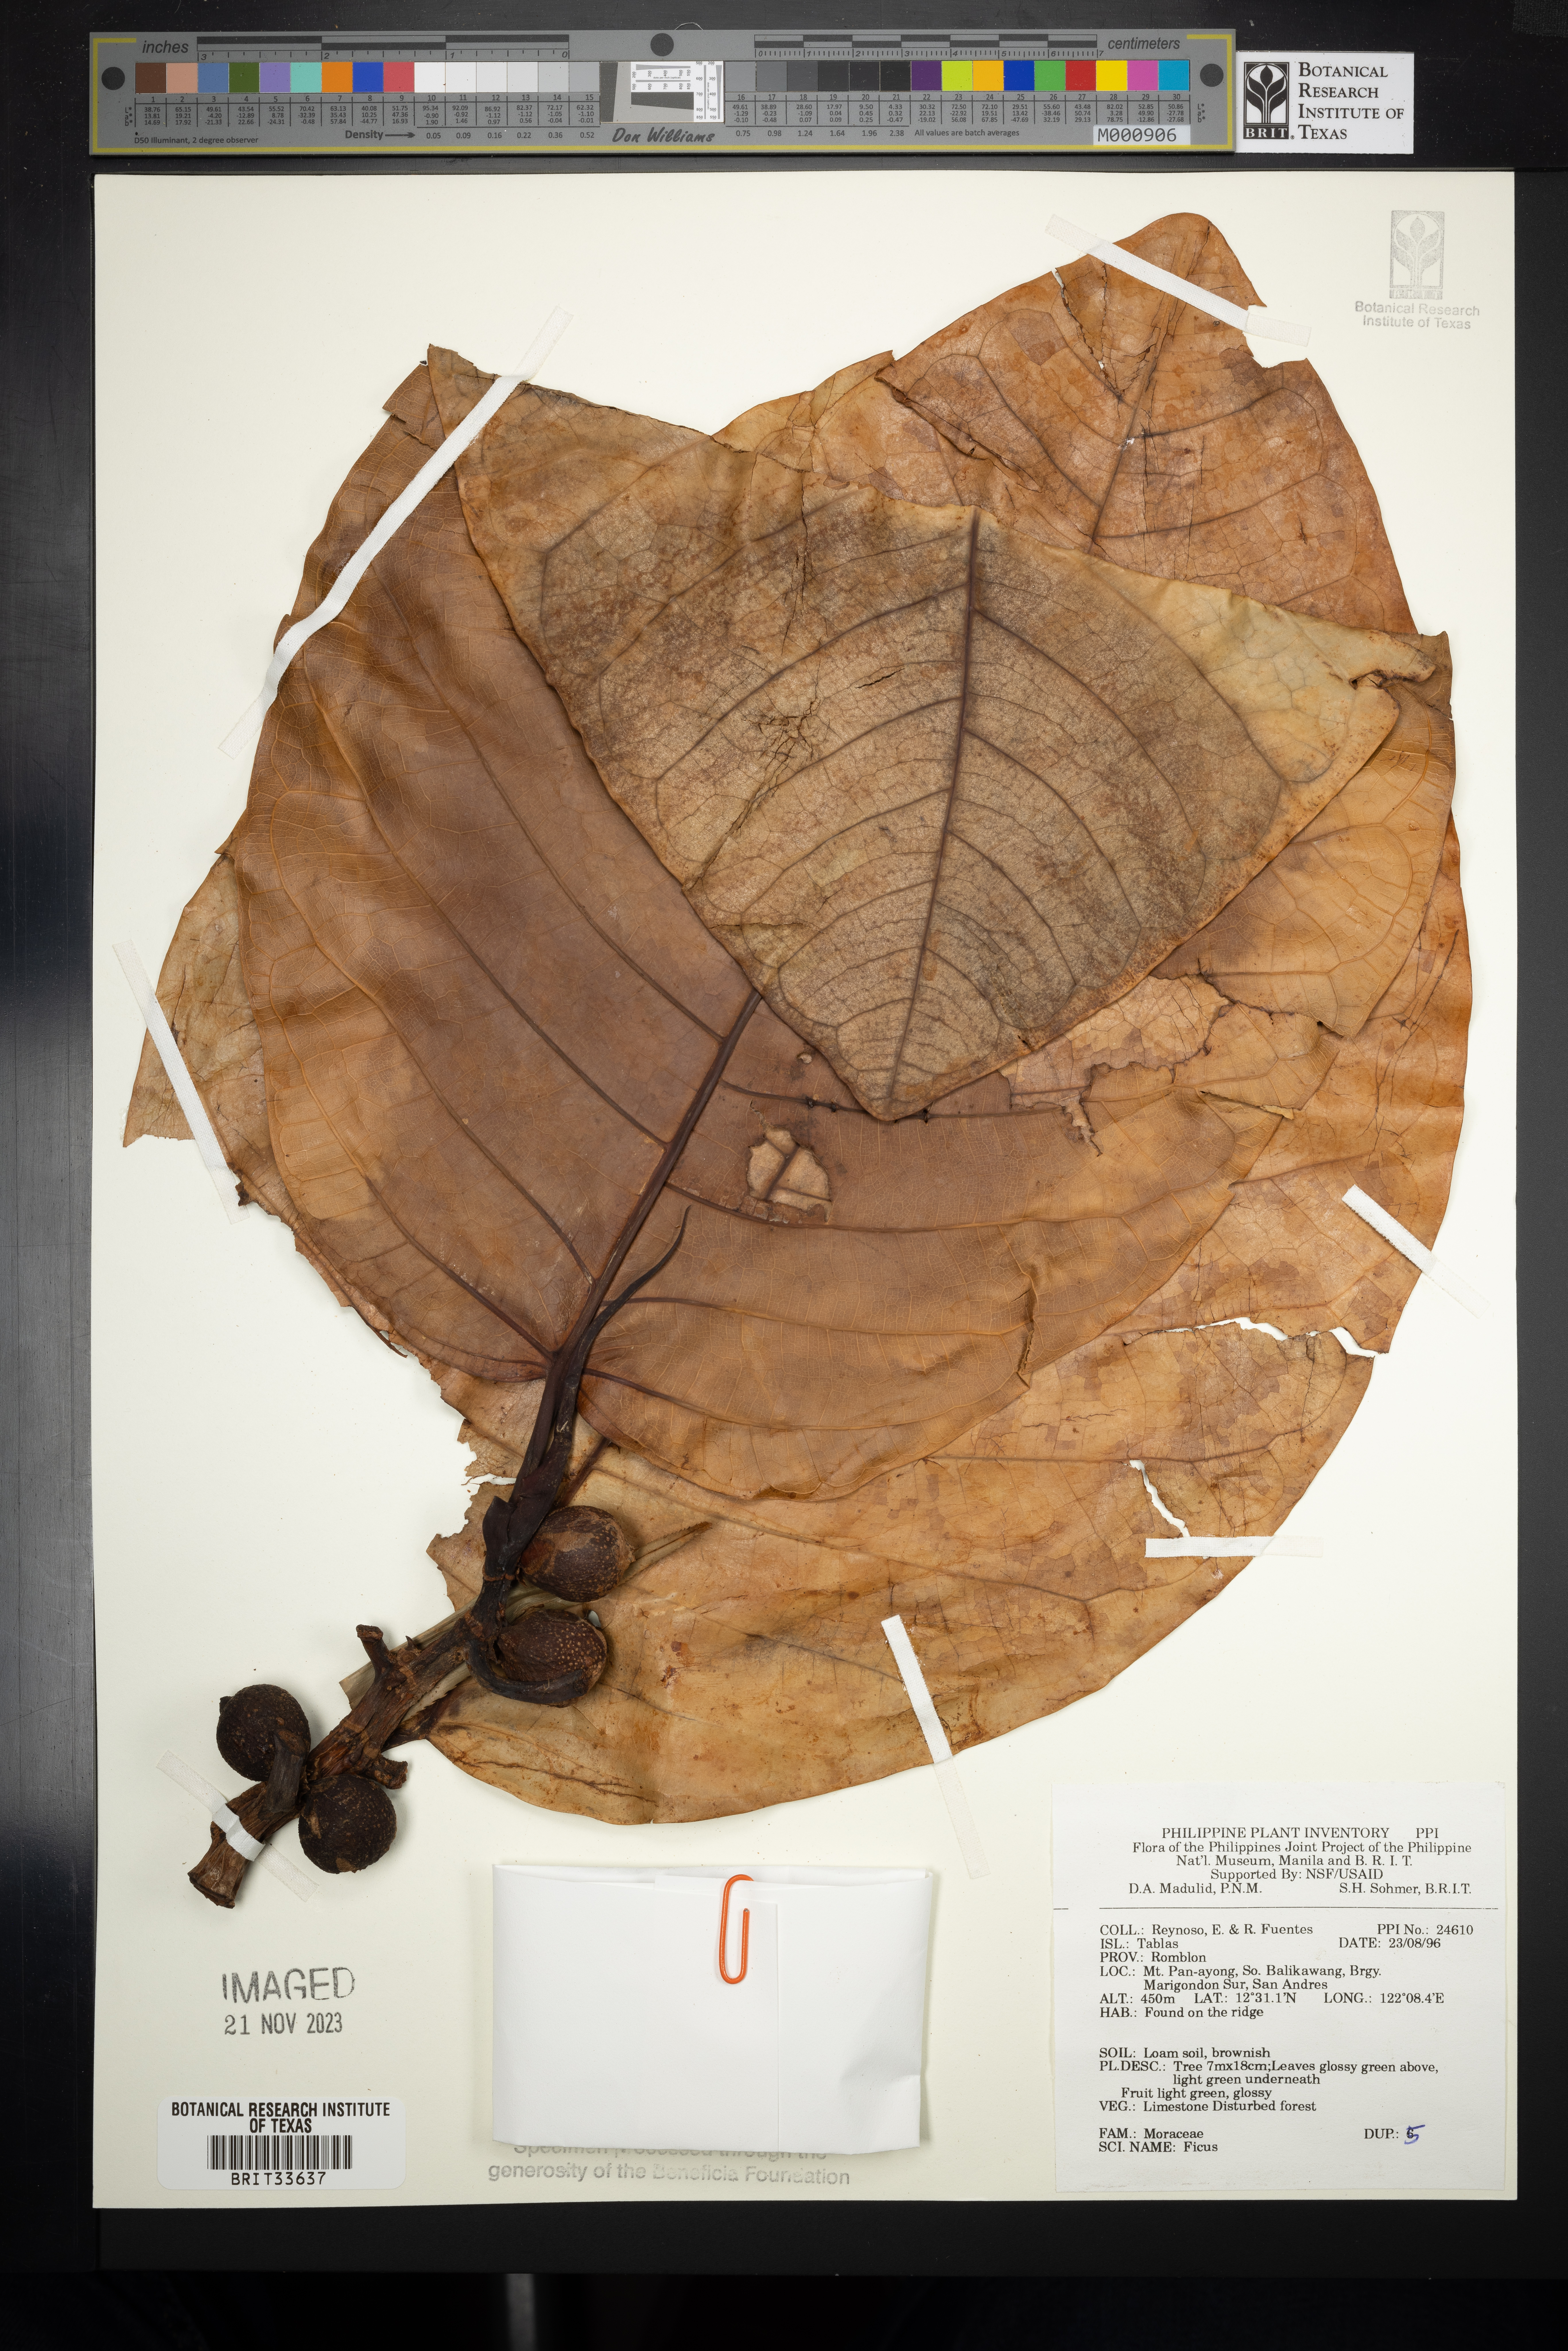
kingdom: Plantae
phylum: Tracheophyta
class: Magnoliopsida
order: Rosales
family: Moraceae
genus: Ficus
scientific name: Ficus
